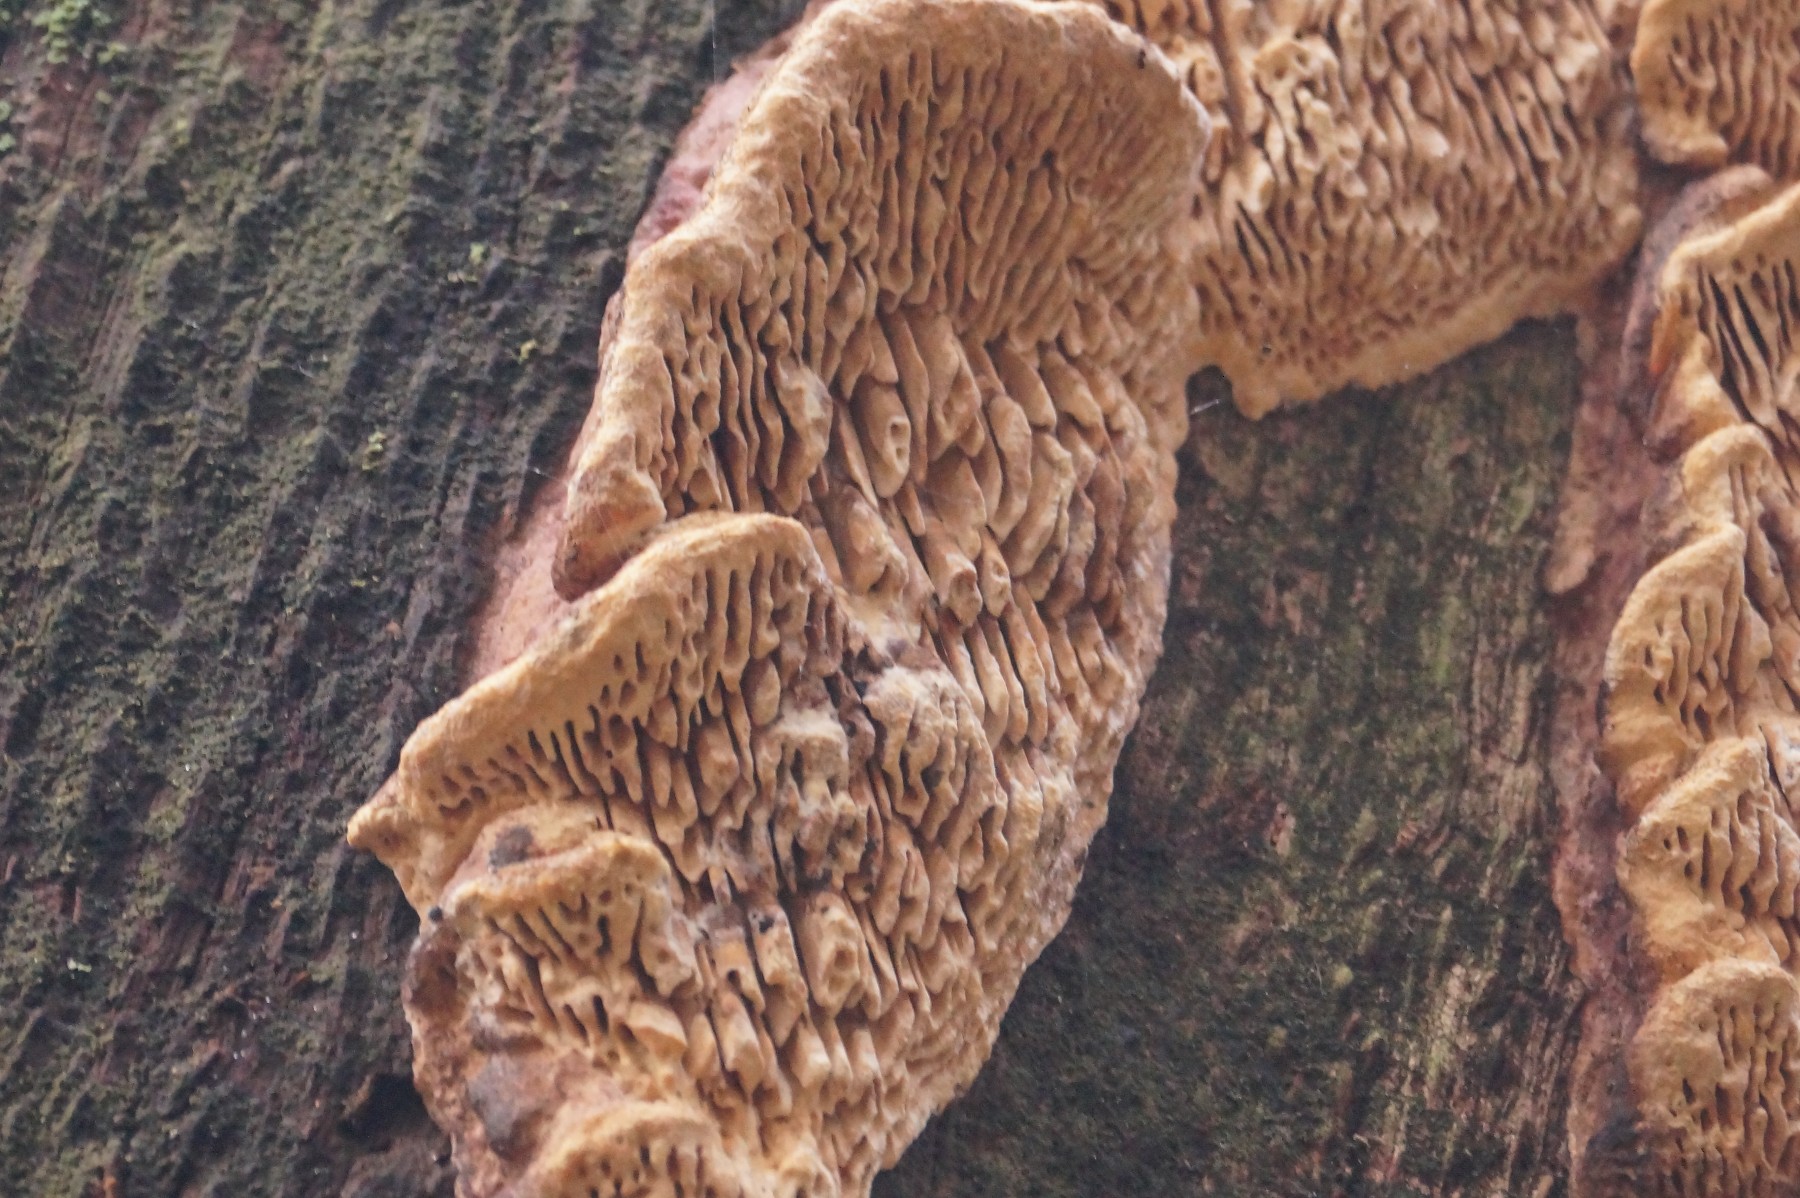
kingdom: Fungi
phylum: Basidiomycota
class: Agaricomycetes
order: Polyporales
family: Fomitopsidaceae
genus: Daedalea
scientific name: Daedalea quercina
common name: ege-labyrintsvamp
